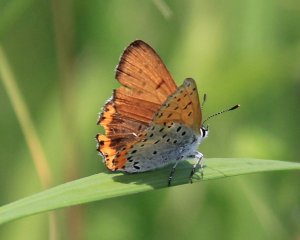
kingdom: Animalia
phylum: Arthropoda
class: Insecta
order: Lepidoptera
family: Sesiidae
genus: Sesia
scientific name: Sesia Lycaena hyllus
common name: Bronze Copper
